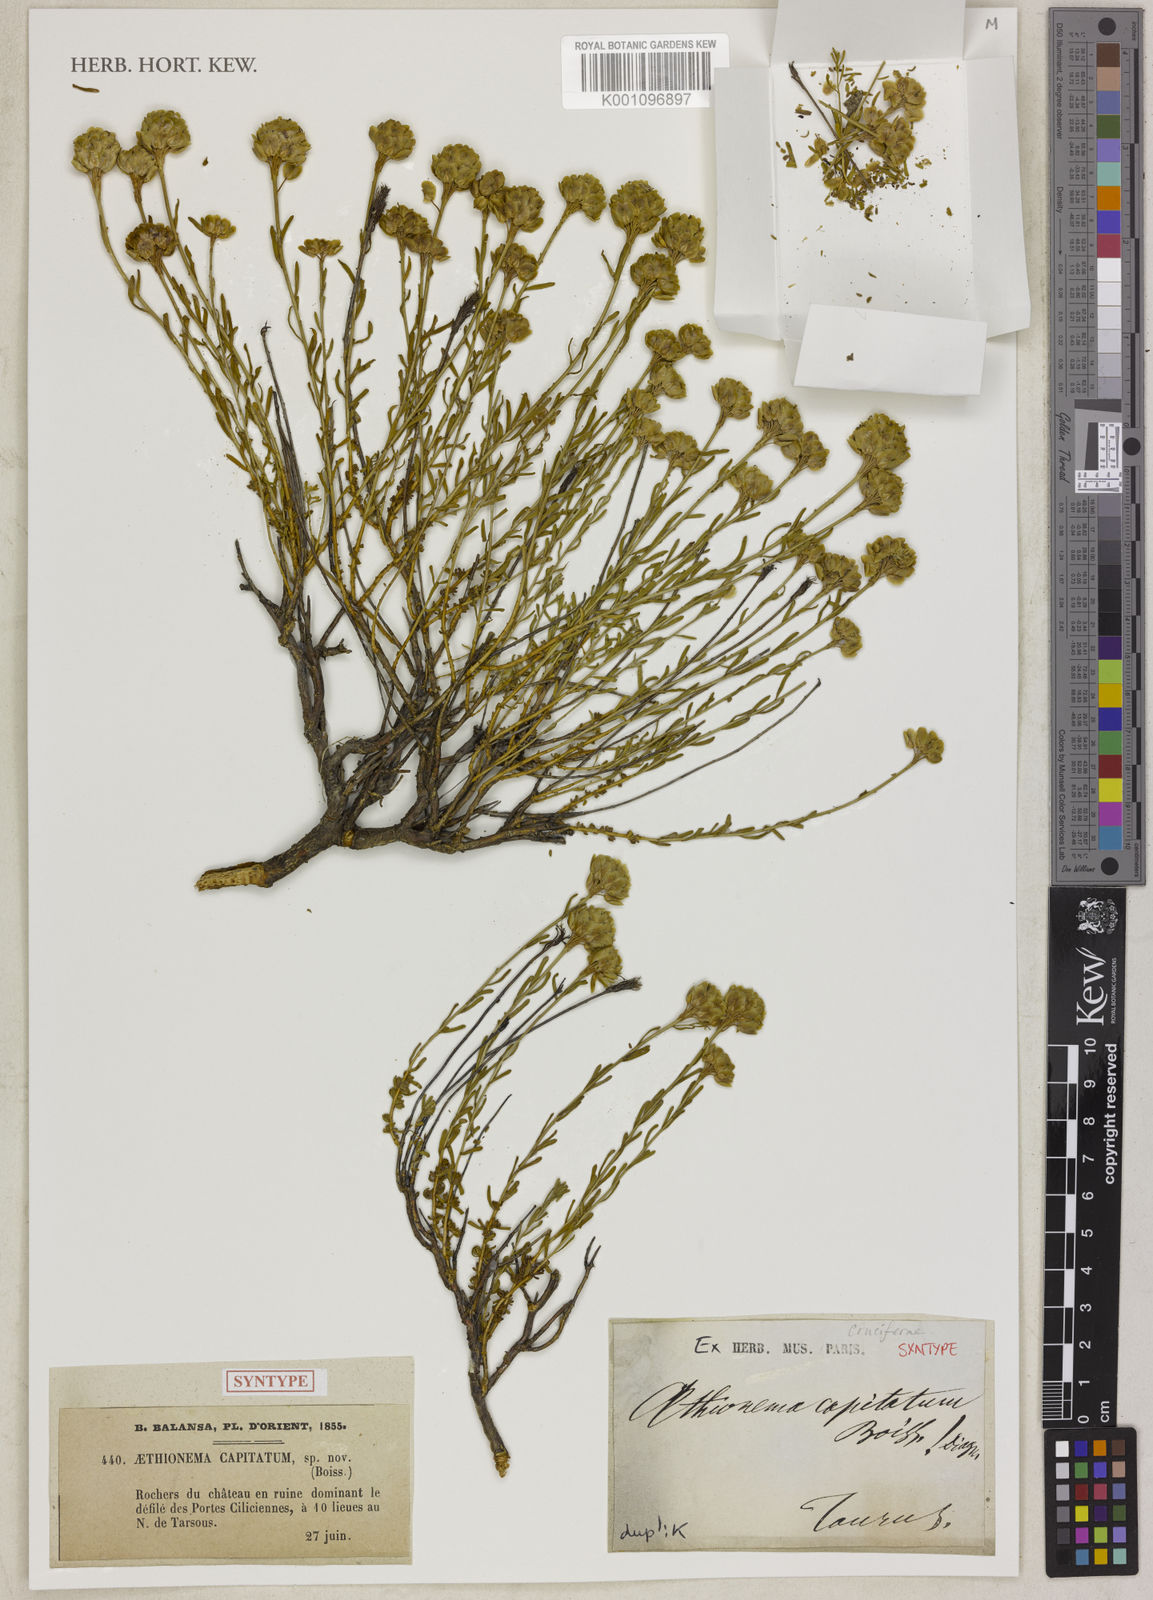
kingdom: Plantae
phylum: Tracheophyta
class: Magnoliopsida
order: Brassicales
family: Brassicaceae
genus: Aethionema
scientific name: Aethionema capitatum
